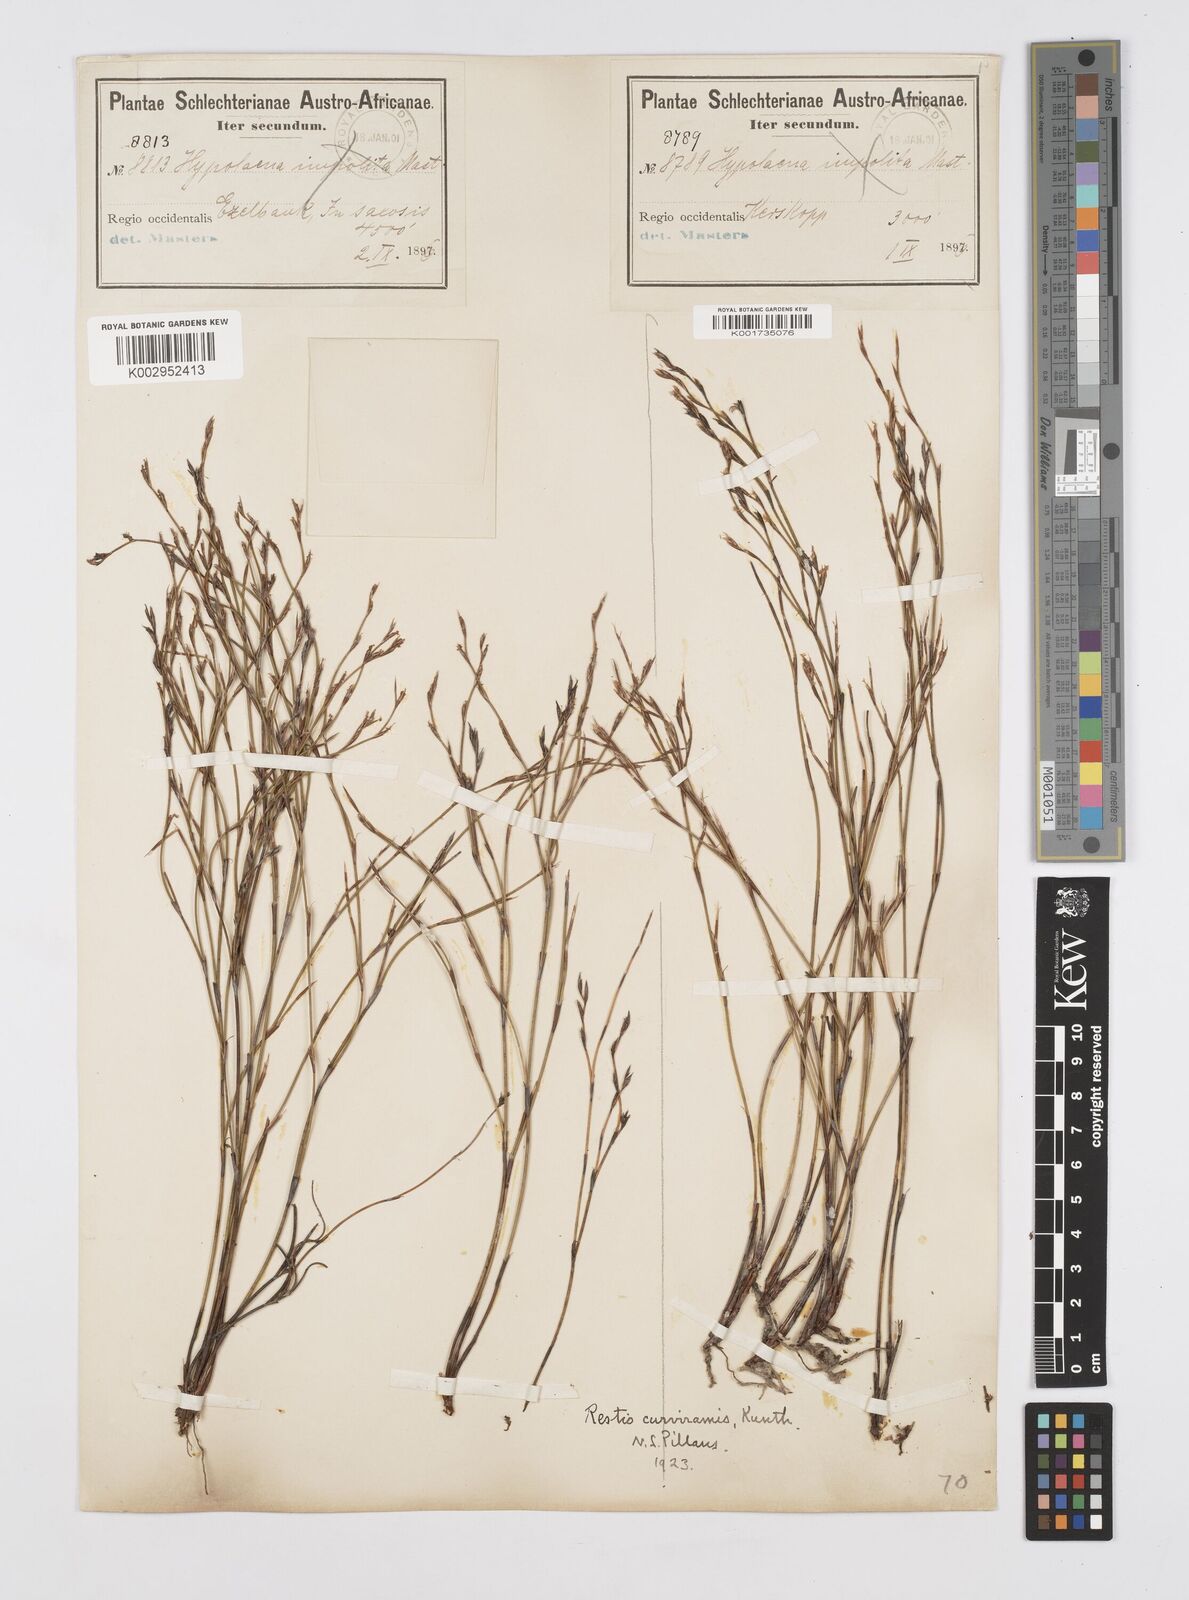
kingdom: Plantae
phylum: Tracheophyta
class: Liliopsida
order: Poales
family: Restionaceae
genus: Restio
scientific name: Restio curviramis
